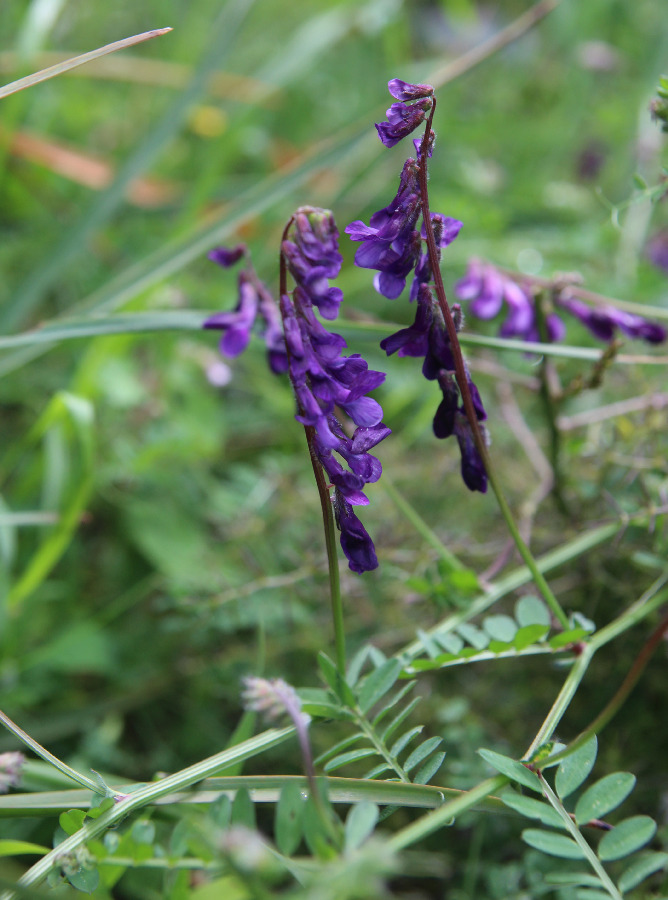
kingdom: Plantae
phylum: Tracheophyta
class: Magnoliopsida
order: Fabales
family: Fabaceae
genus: Vicia
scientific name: Vicia villosa
